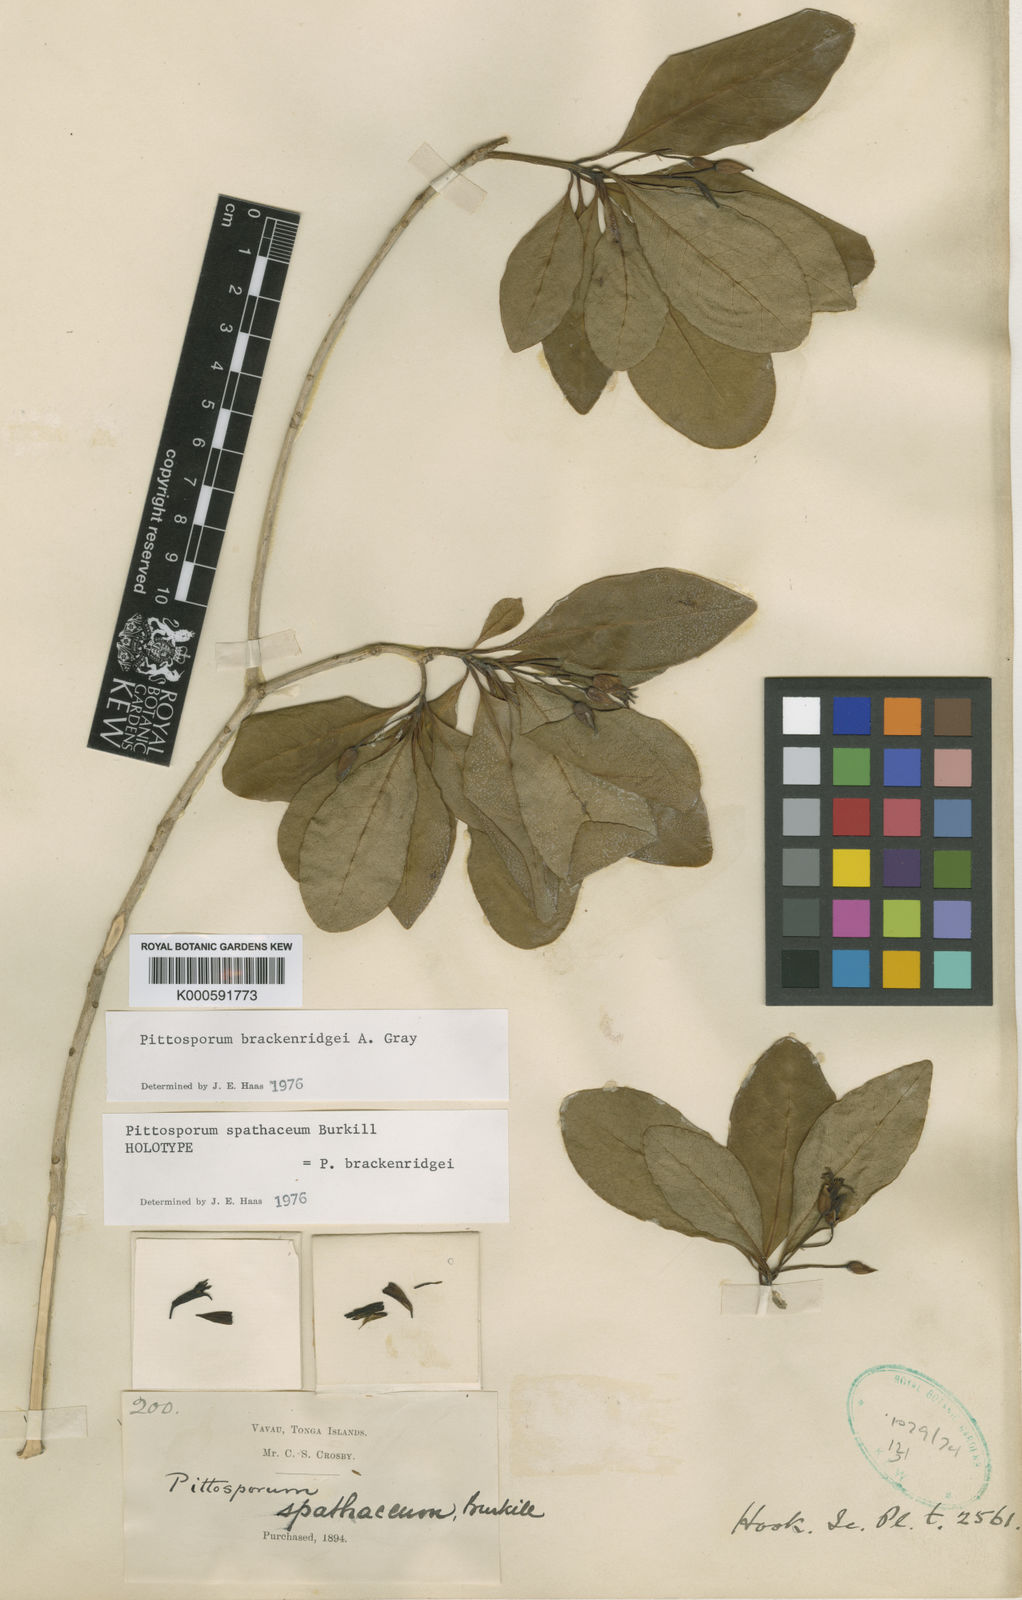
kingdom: Plantae
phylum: Tracheophyta
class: Magnoliopsida
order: Apiales
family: Pittosporaceae
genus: Pittosporum
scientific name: Pittosporum brackenridgei
